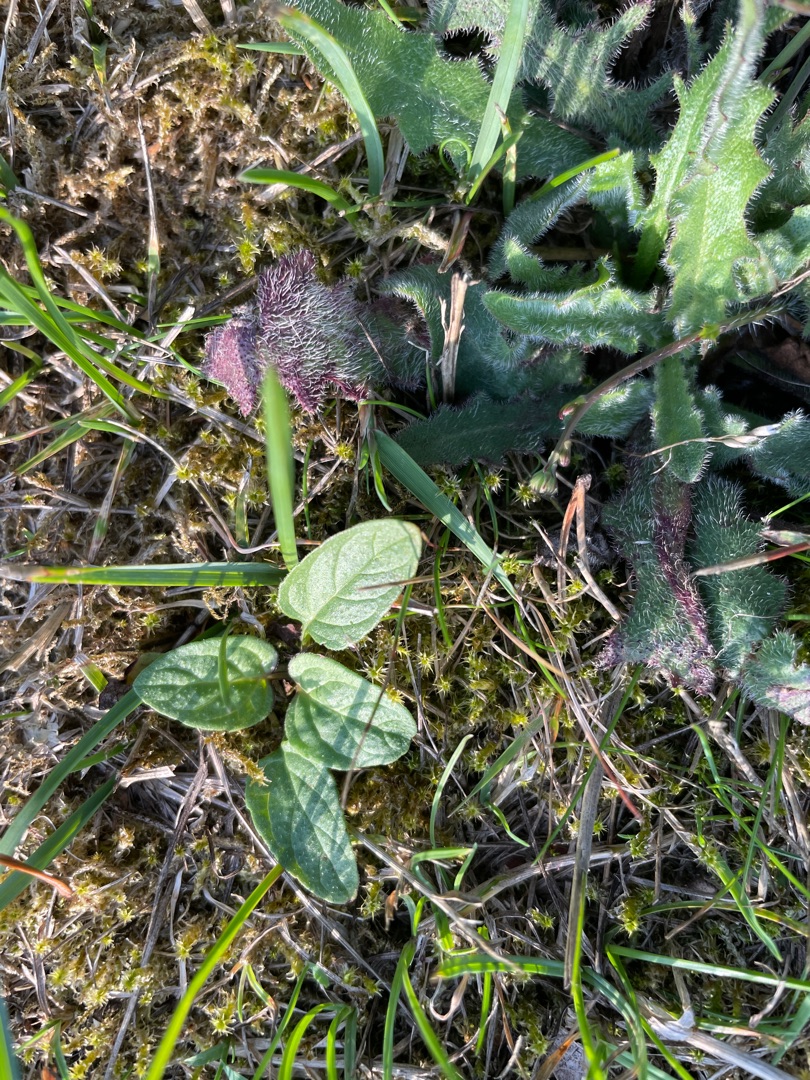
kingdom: Plantae
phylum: Tracheophyta
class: Magnoliopsida
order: Lamiales
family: Lamiaceae
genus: Prunella
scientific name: Prunella vulgaris
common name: Almindelig brunelle
